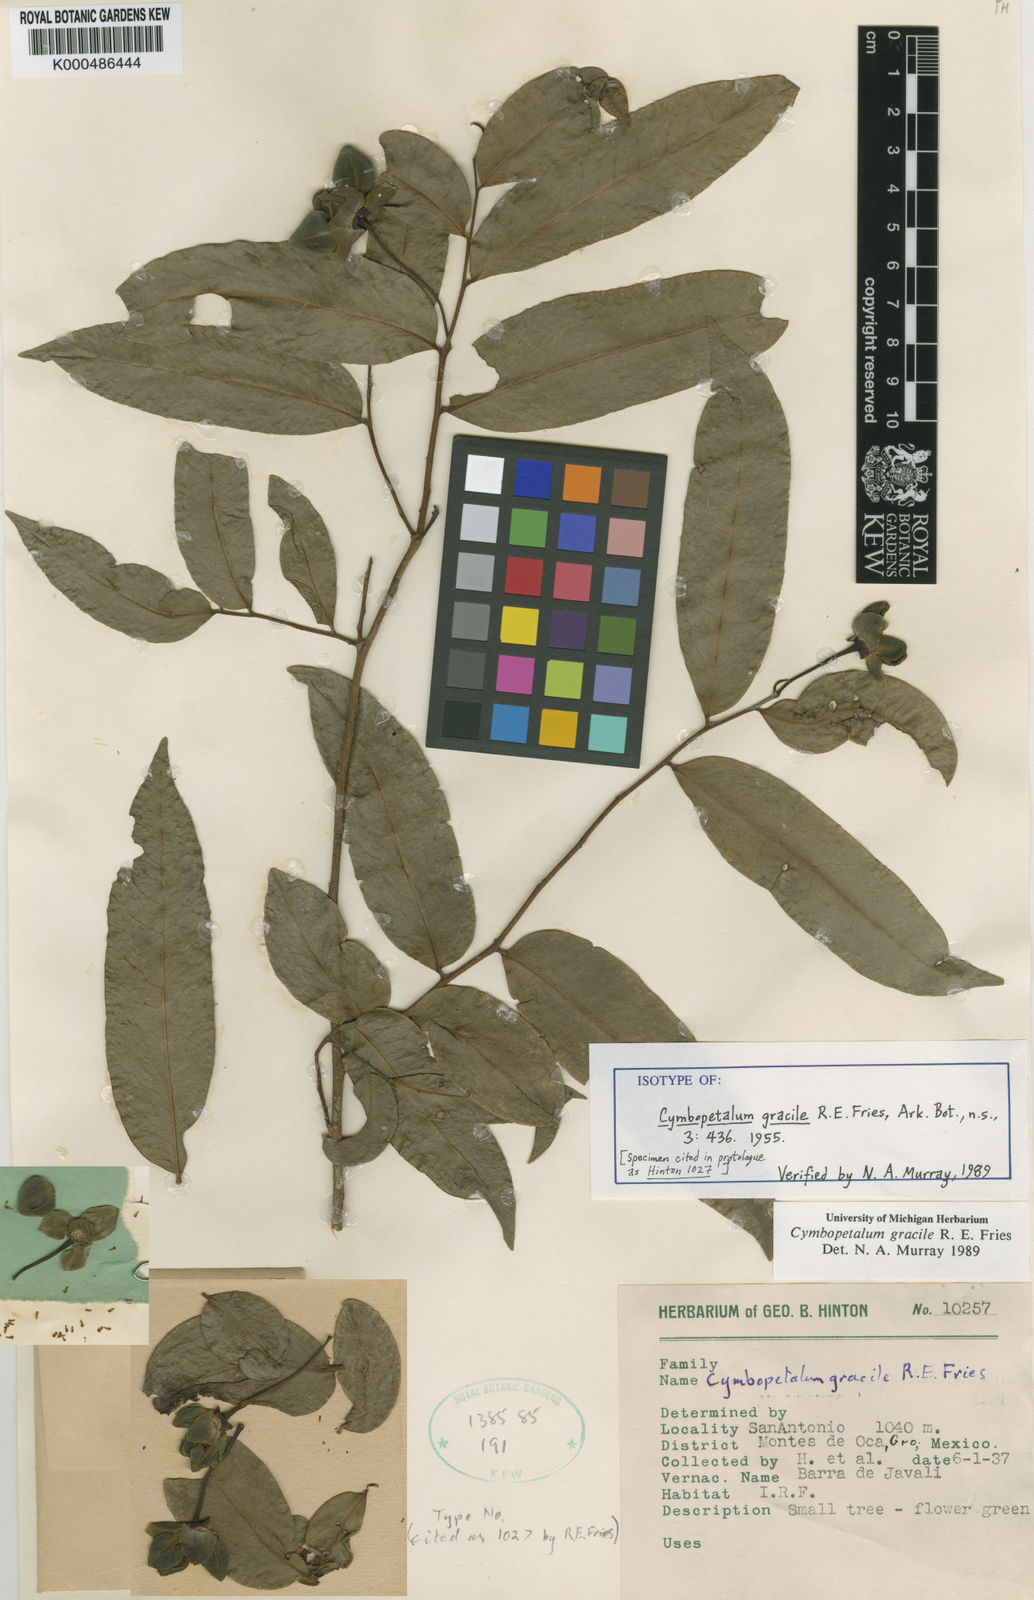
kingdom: Plantae
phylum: Tracheophyta
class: Magnoliopsida
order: Magnoliales
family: Annonaceae
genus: Cymbopetalum
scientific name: Cymbopetalum gracile
